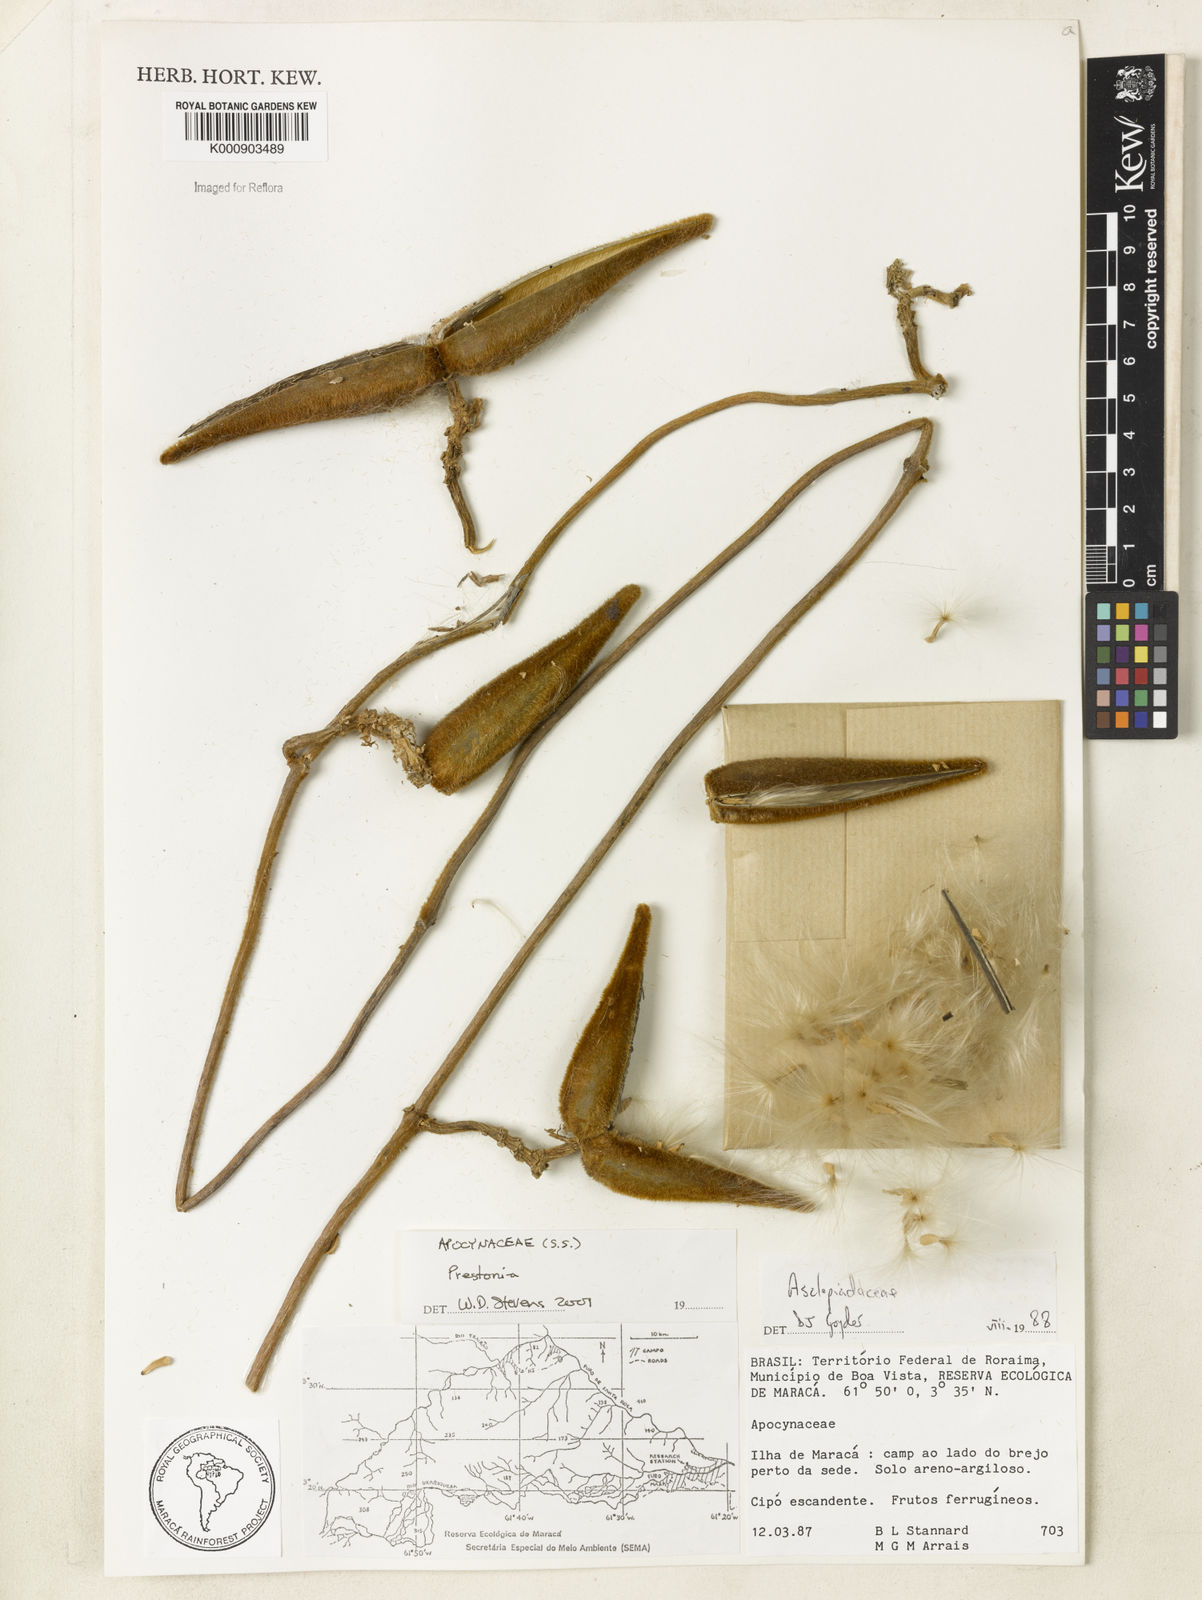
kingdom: Plantae
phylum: Tracheophyta
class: Magnoliopsida
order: Gentianales
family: Apocynaceae
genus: Prestonia
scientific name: Prestonia
